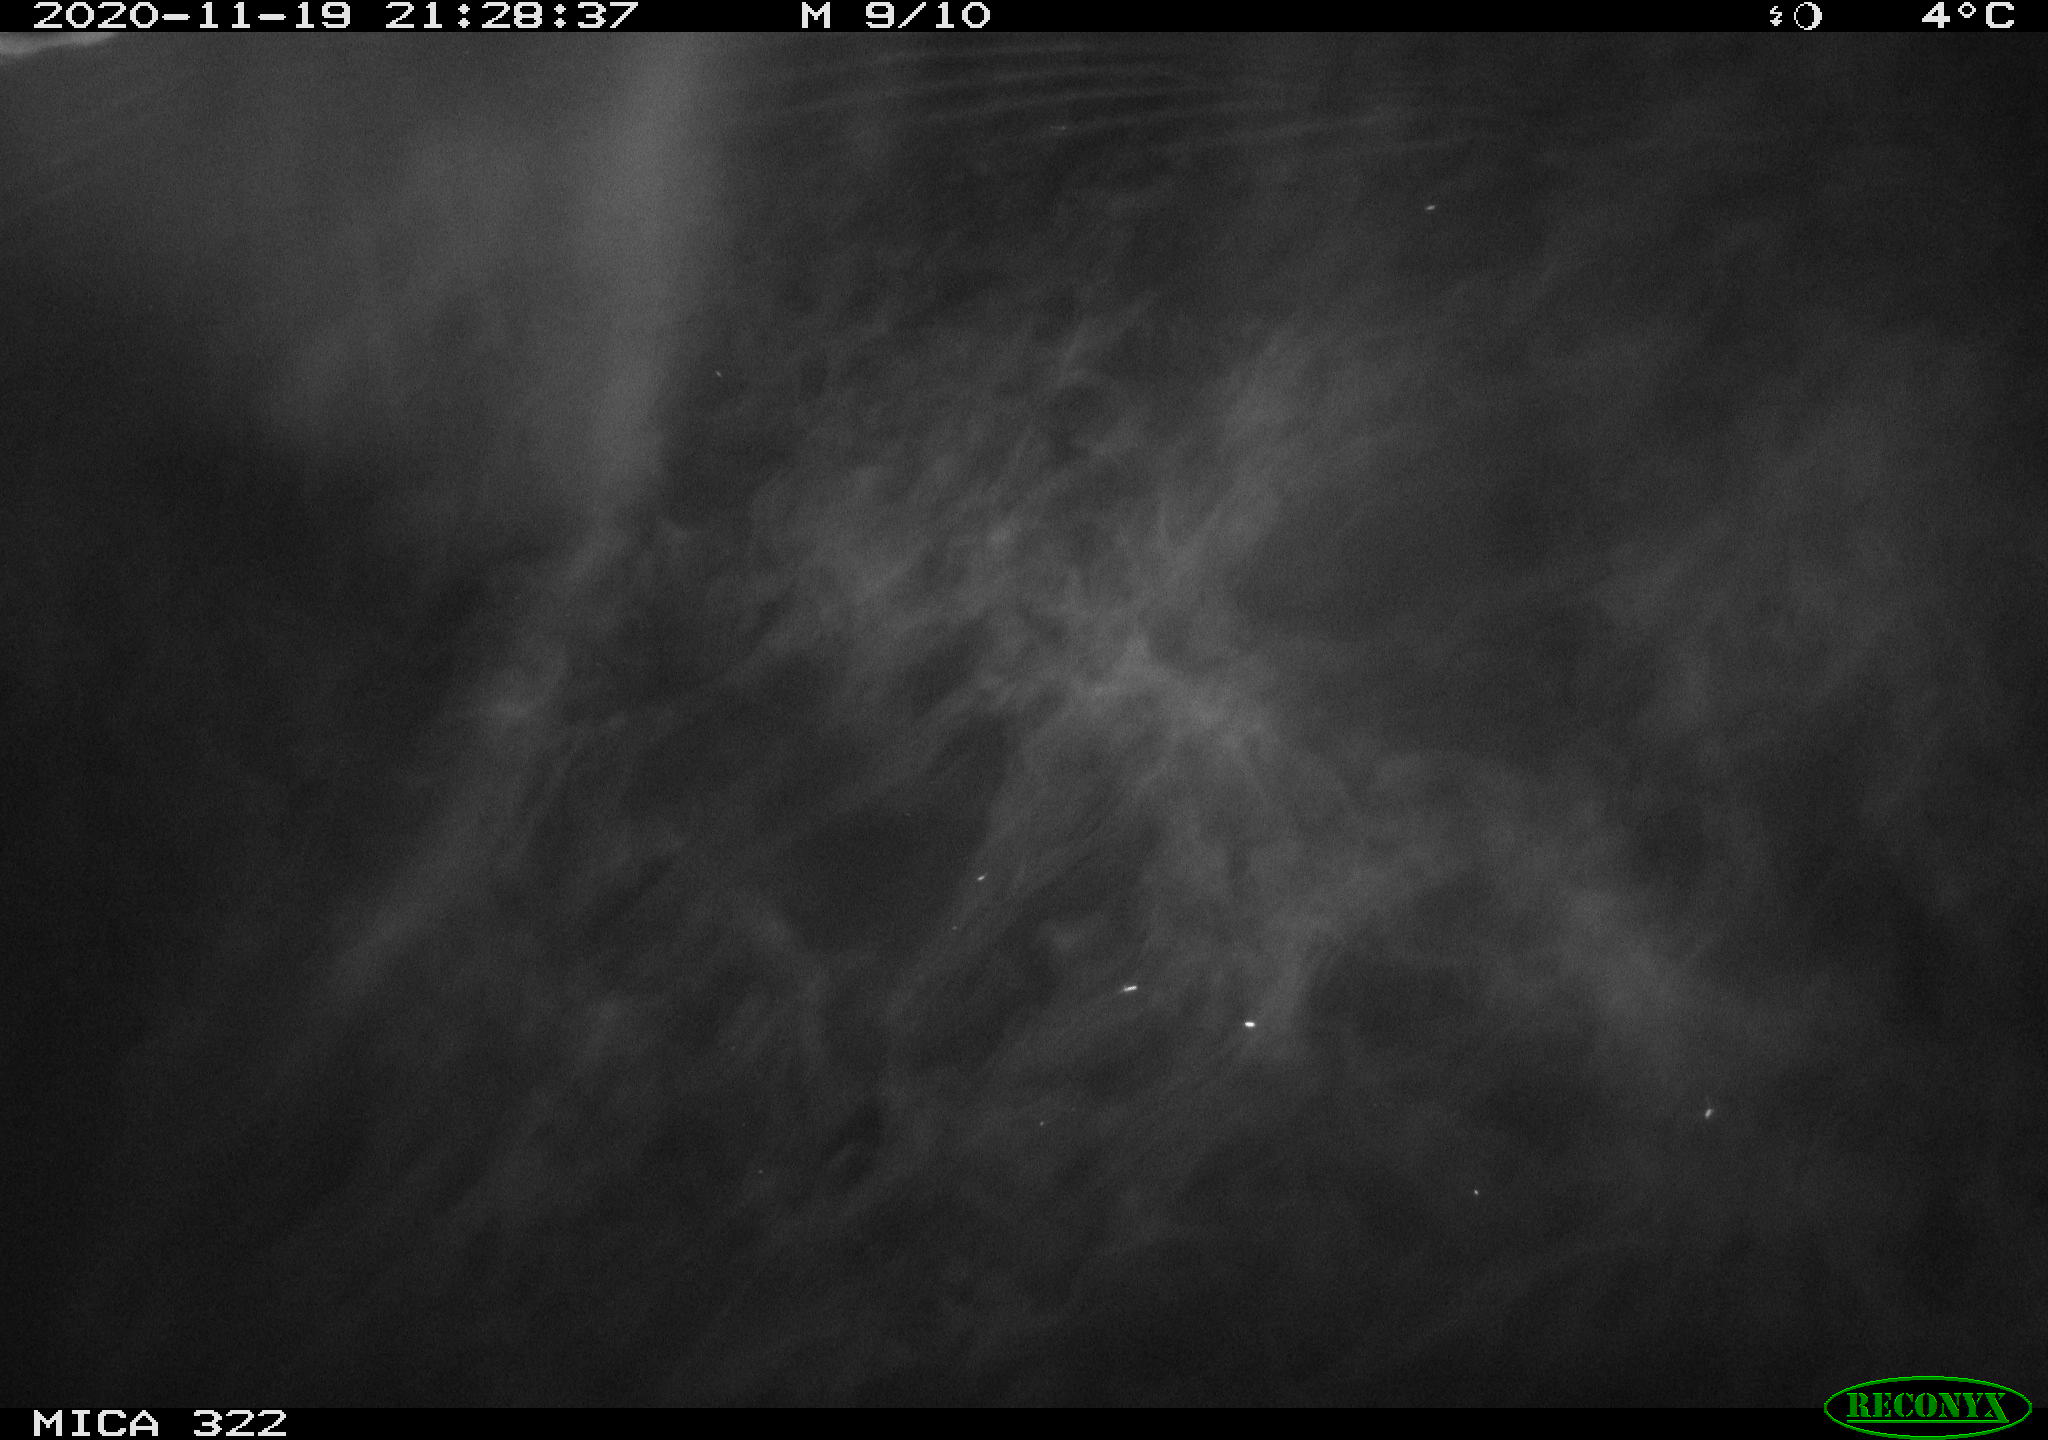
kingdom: Animalia
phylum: Chordata
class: Mammalia
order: Rodentia
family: Muridae
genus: Rattus
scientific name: Rattus norvegicus
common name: Brown rat
